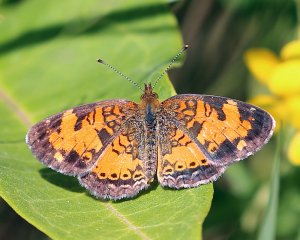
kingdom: Animalia
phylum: Arthropoda
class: Insecta
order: Lepidoptera
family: Nymphalidae
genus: Phyciodes
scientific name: Phyciodes tharos
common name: Northern Crescent
